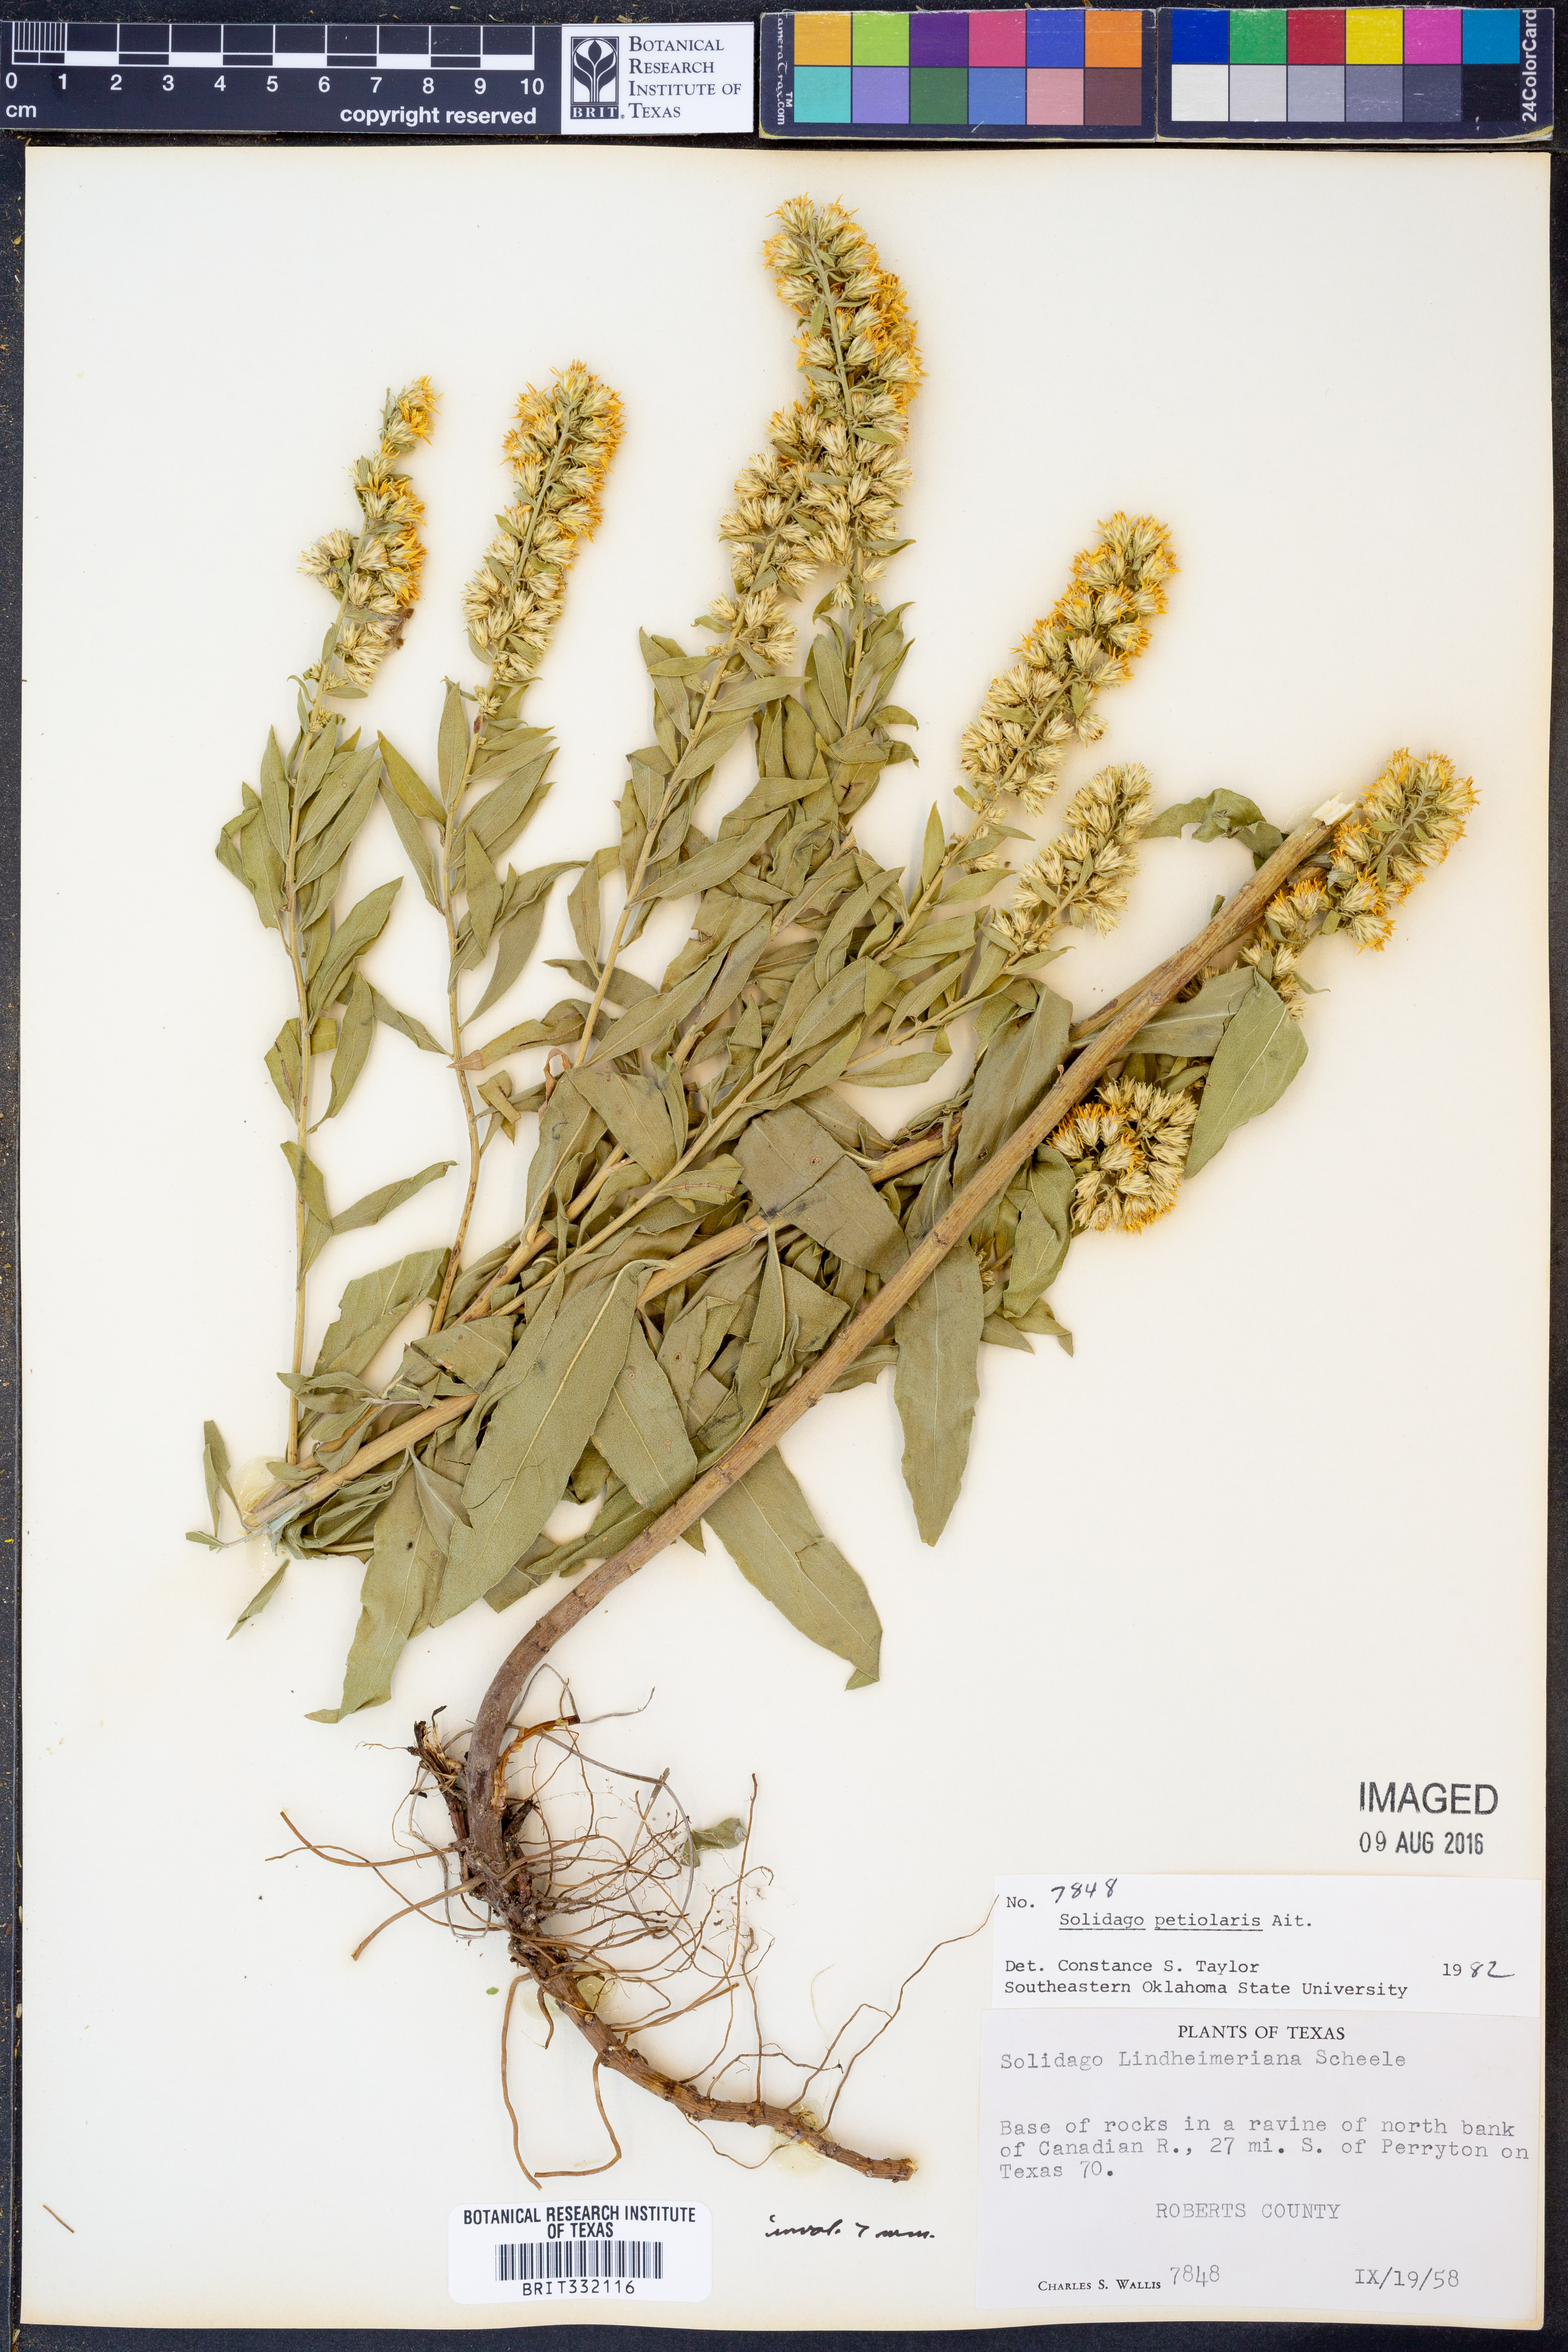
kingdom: Plantae
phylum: Tracheophyta
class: Magnoliopsida
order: Asterales
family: Asteraceae
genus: Solidago
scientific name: Solidago petiolaris
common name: Downy ragged goldenrod
